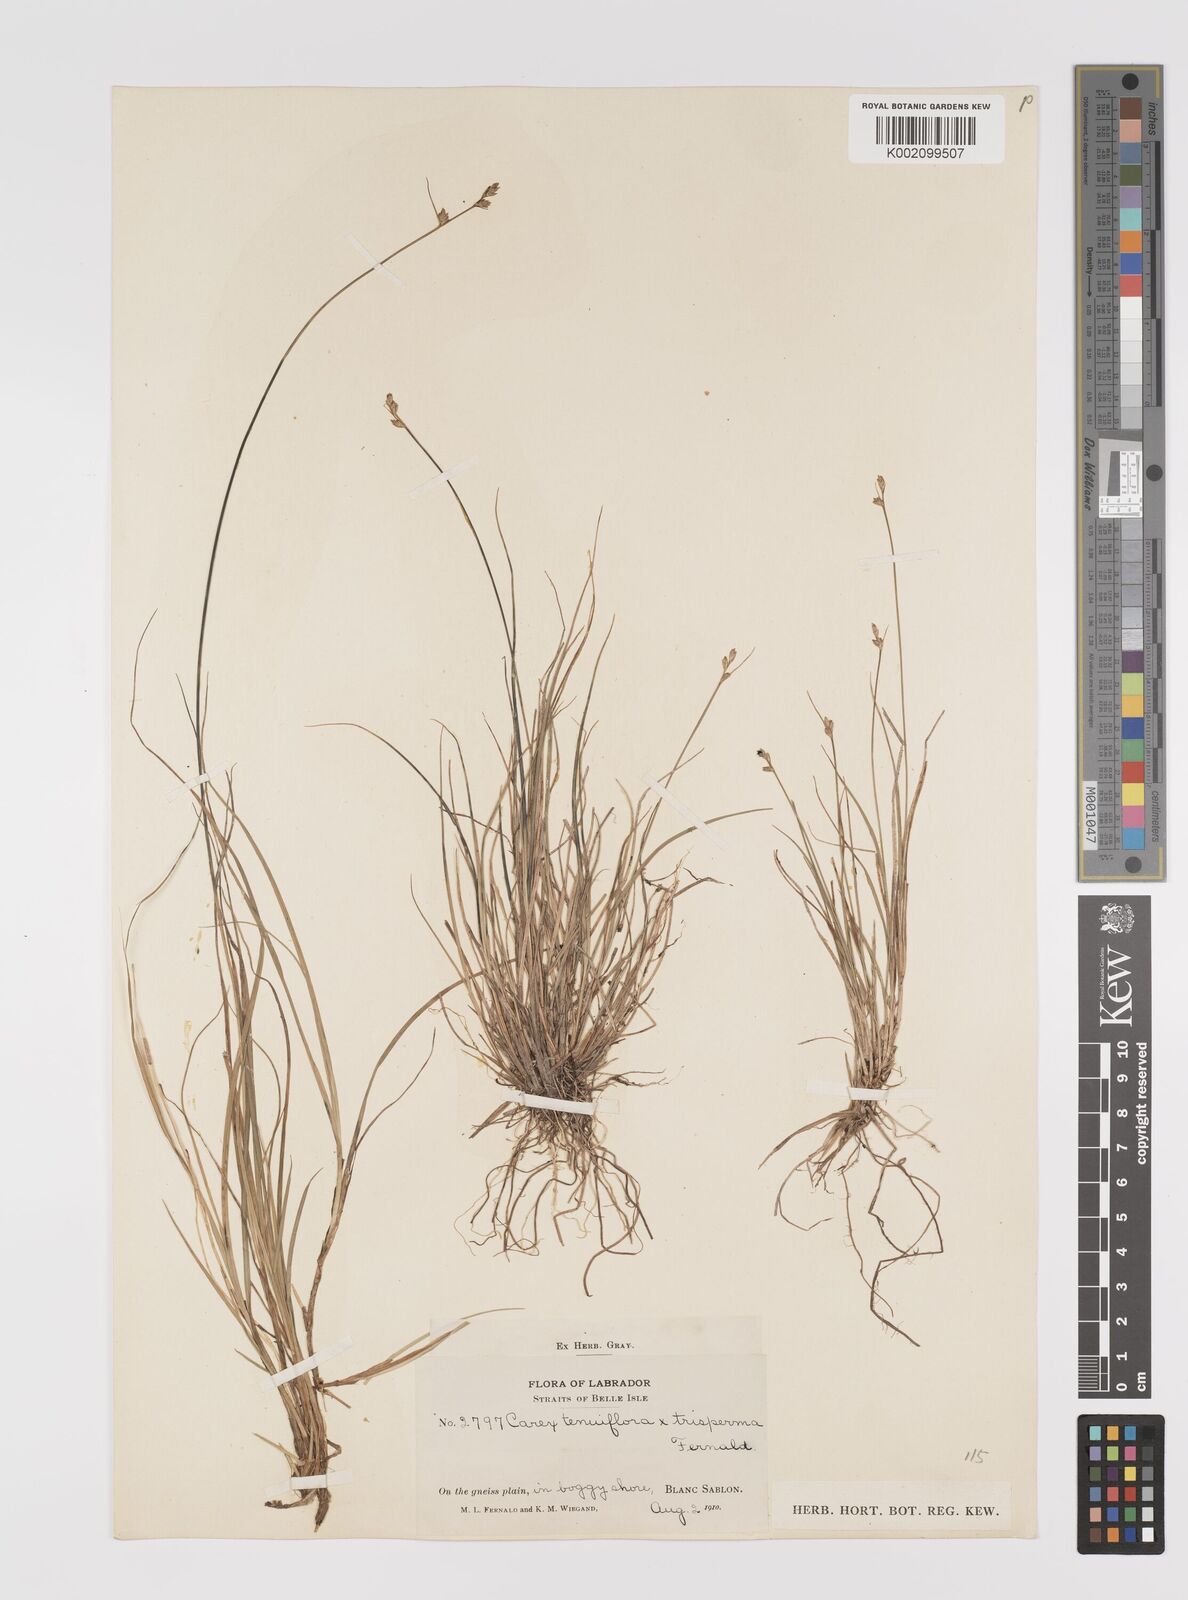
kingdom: Plantae
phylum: Tracheophyta
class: Liliopsida
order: Poales
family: Cyperaceae
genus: Carex
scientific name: Carex tenuiflora
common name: Sparse-flowered sedge
